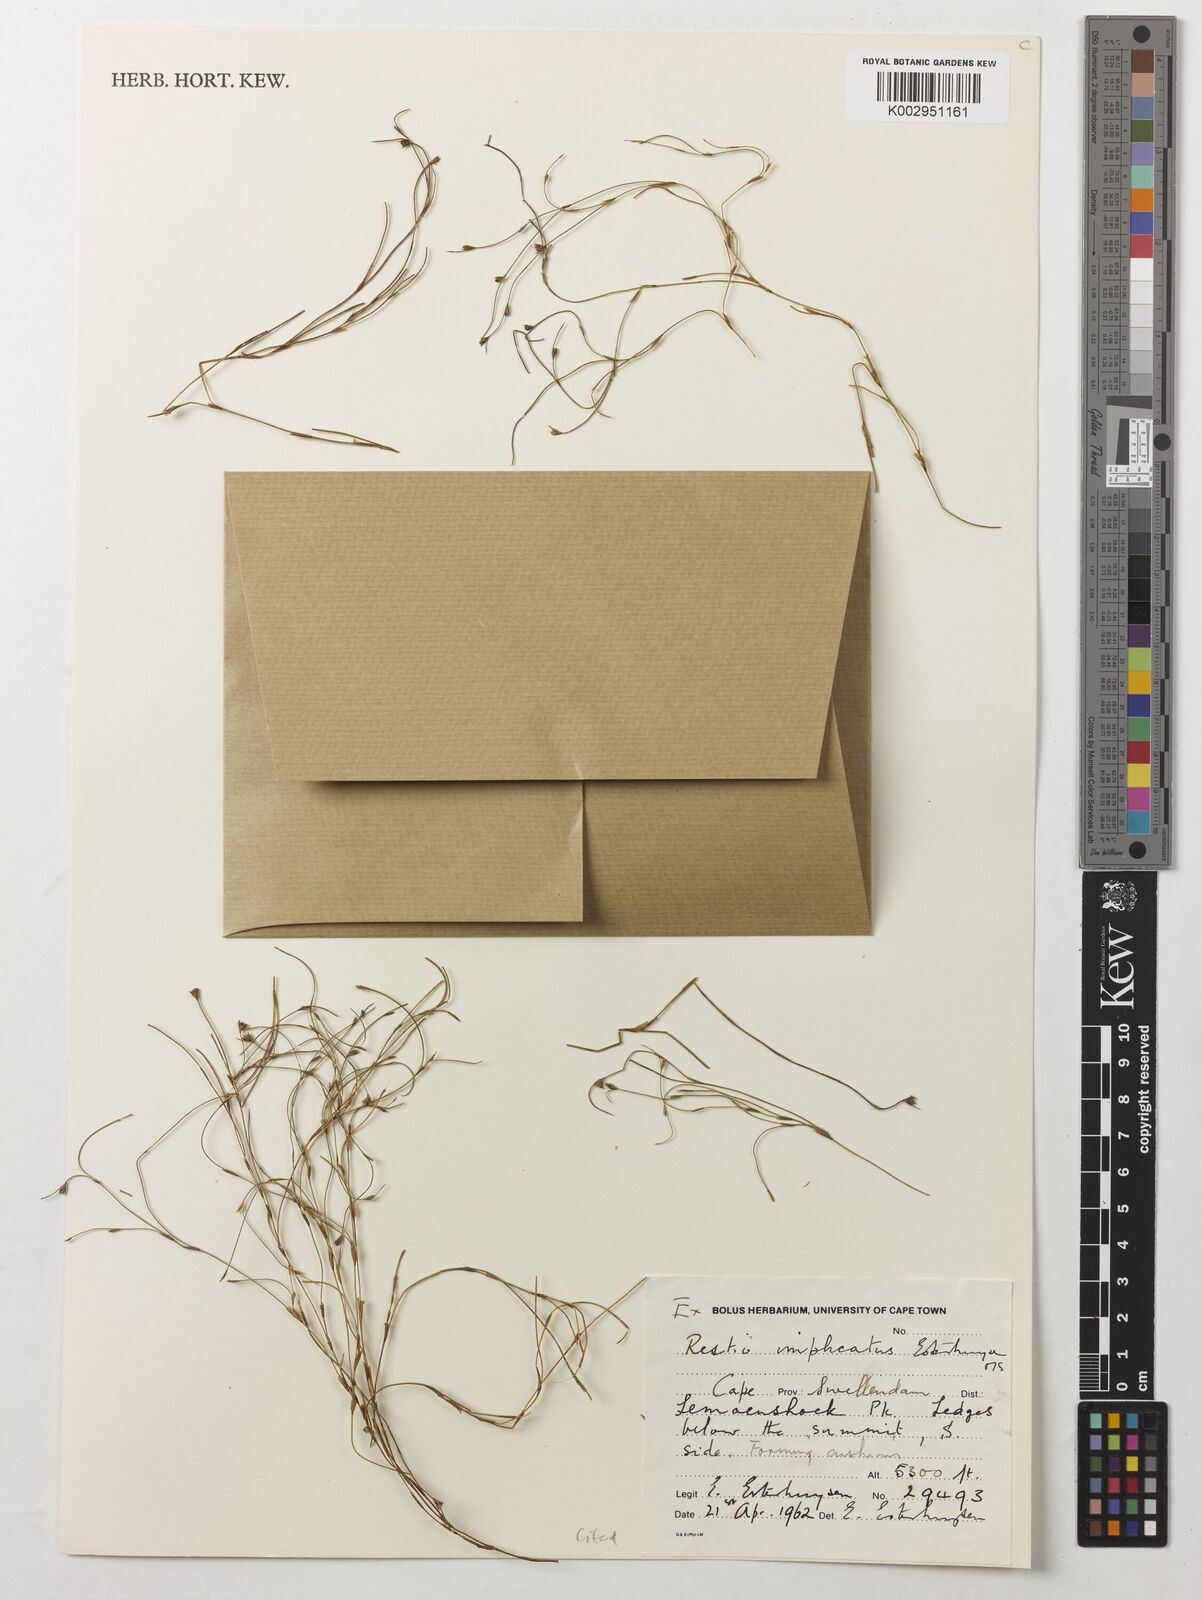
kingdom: Plantae
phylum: Tracheophyta
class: Liliopsida
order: Poales
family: Restionaceae
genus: Restio
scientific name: Restio implicatus
